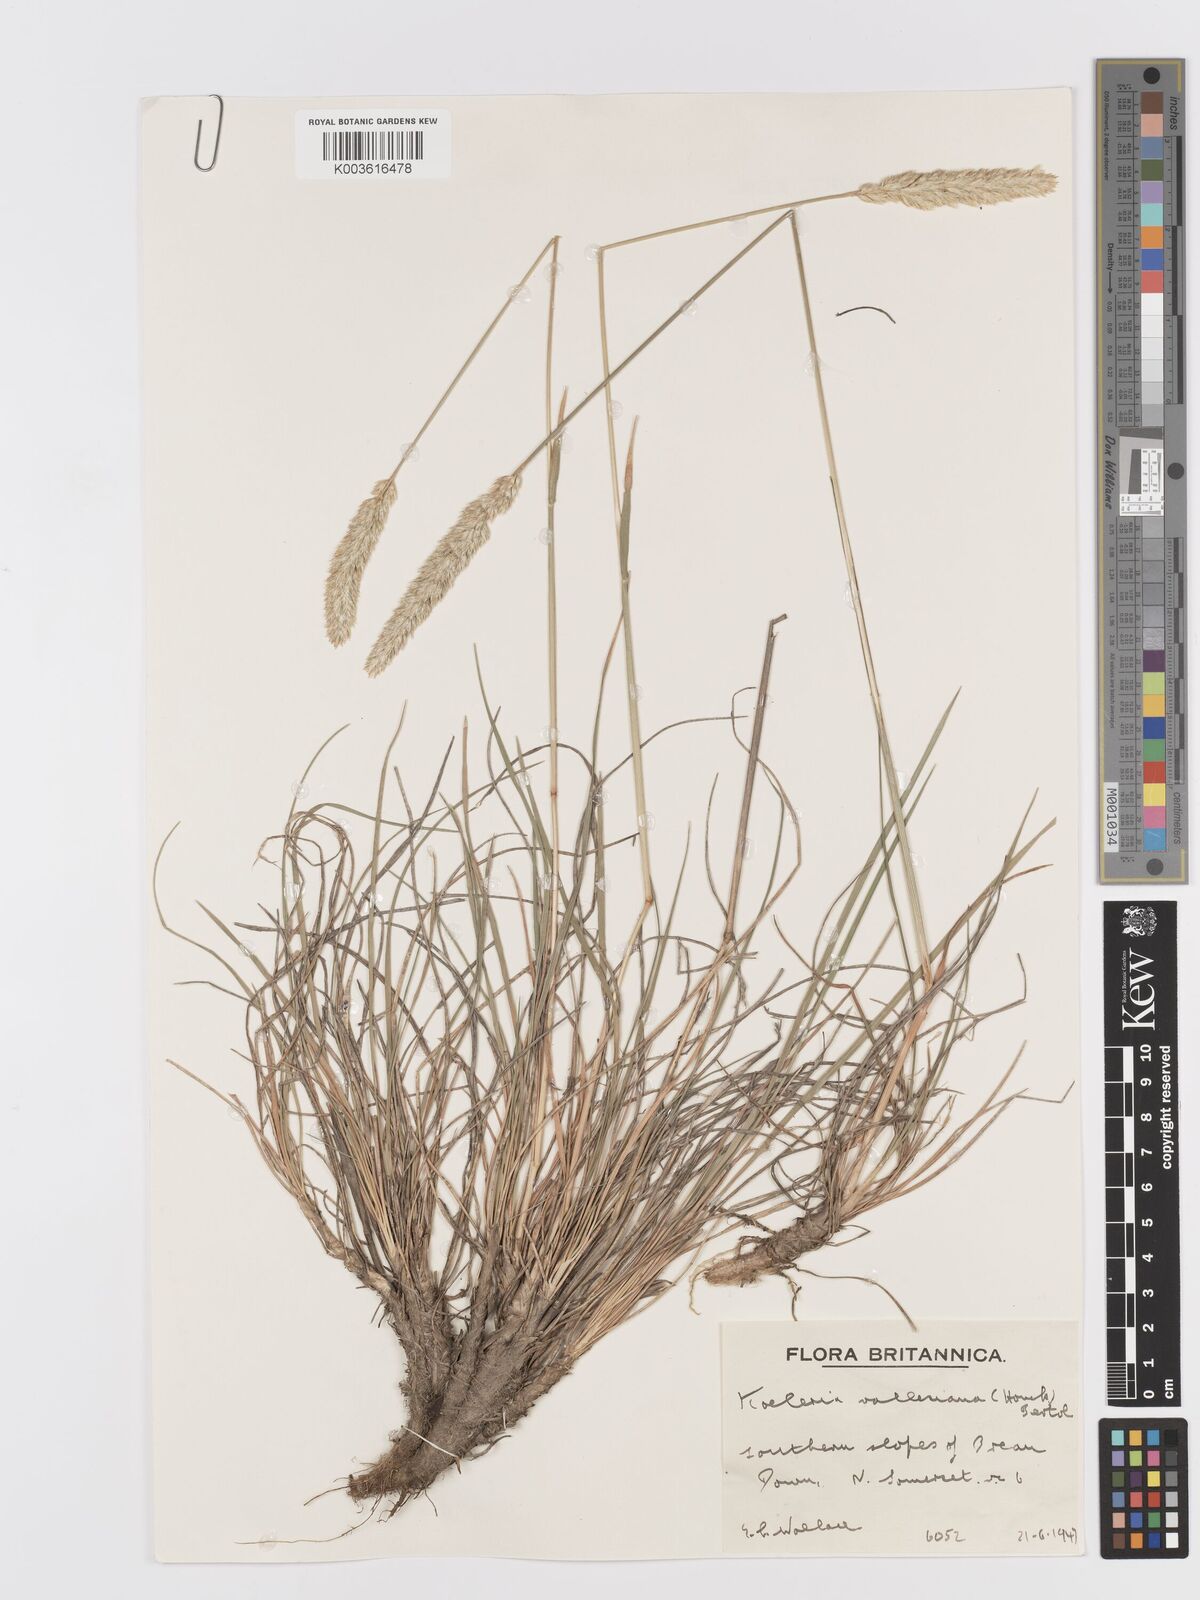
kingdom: Plantae
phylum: Tracheophyta
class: Liliopsida
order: Poales
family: Poaceae
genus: Koeleria
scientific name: Koeleria vallesiana
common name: Somerset hair-grass
